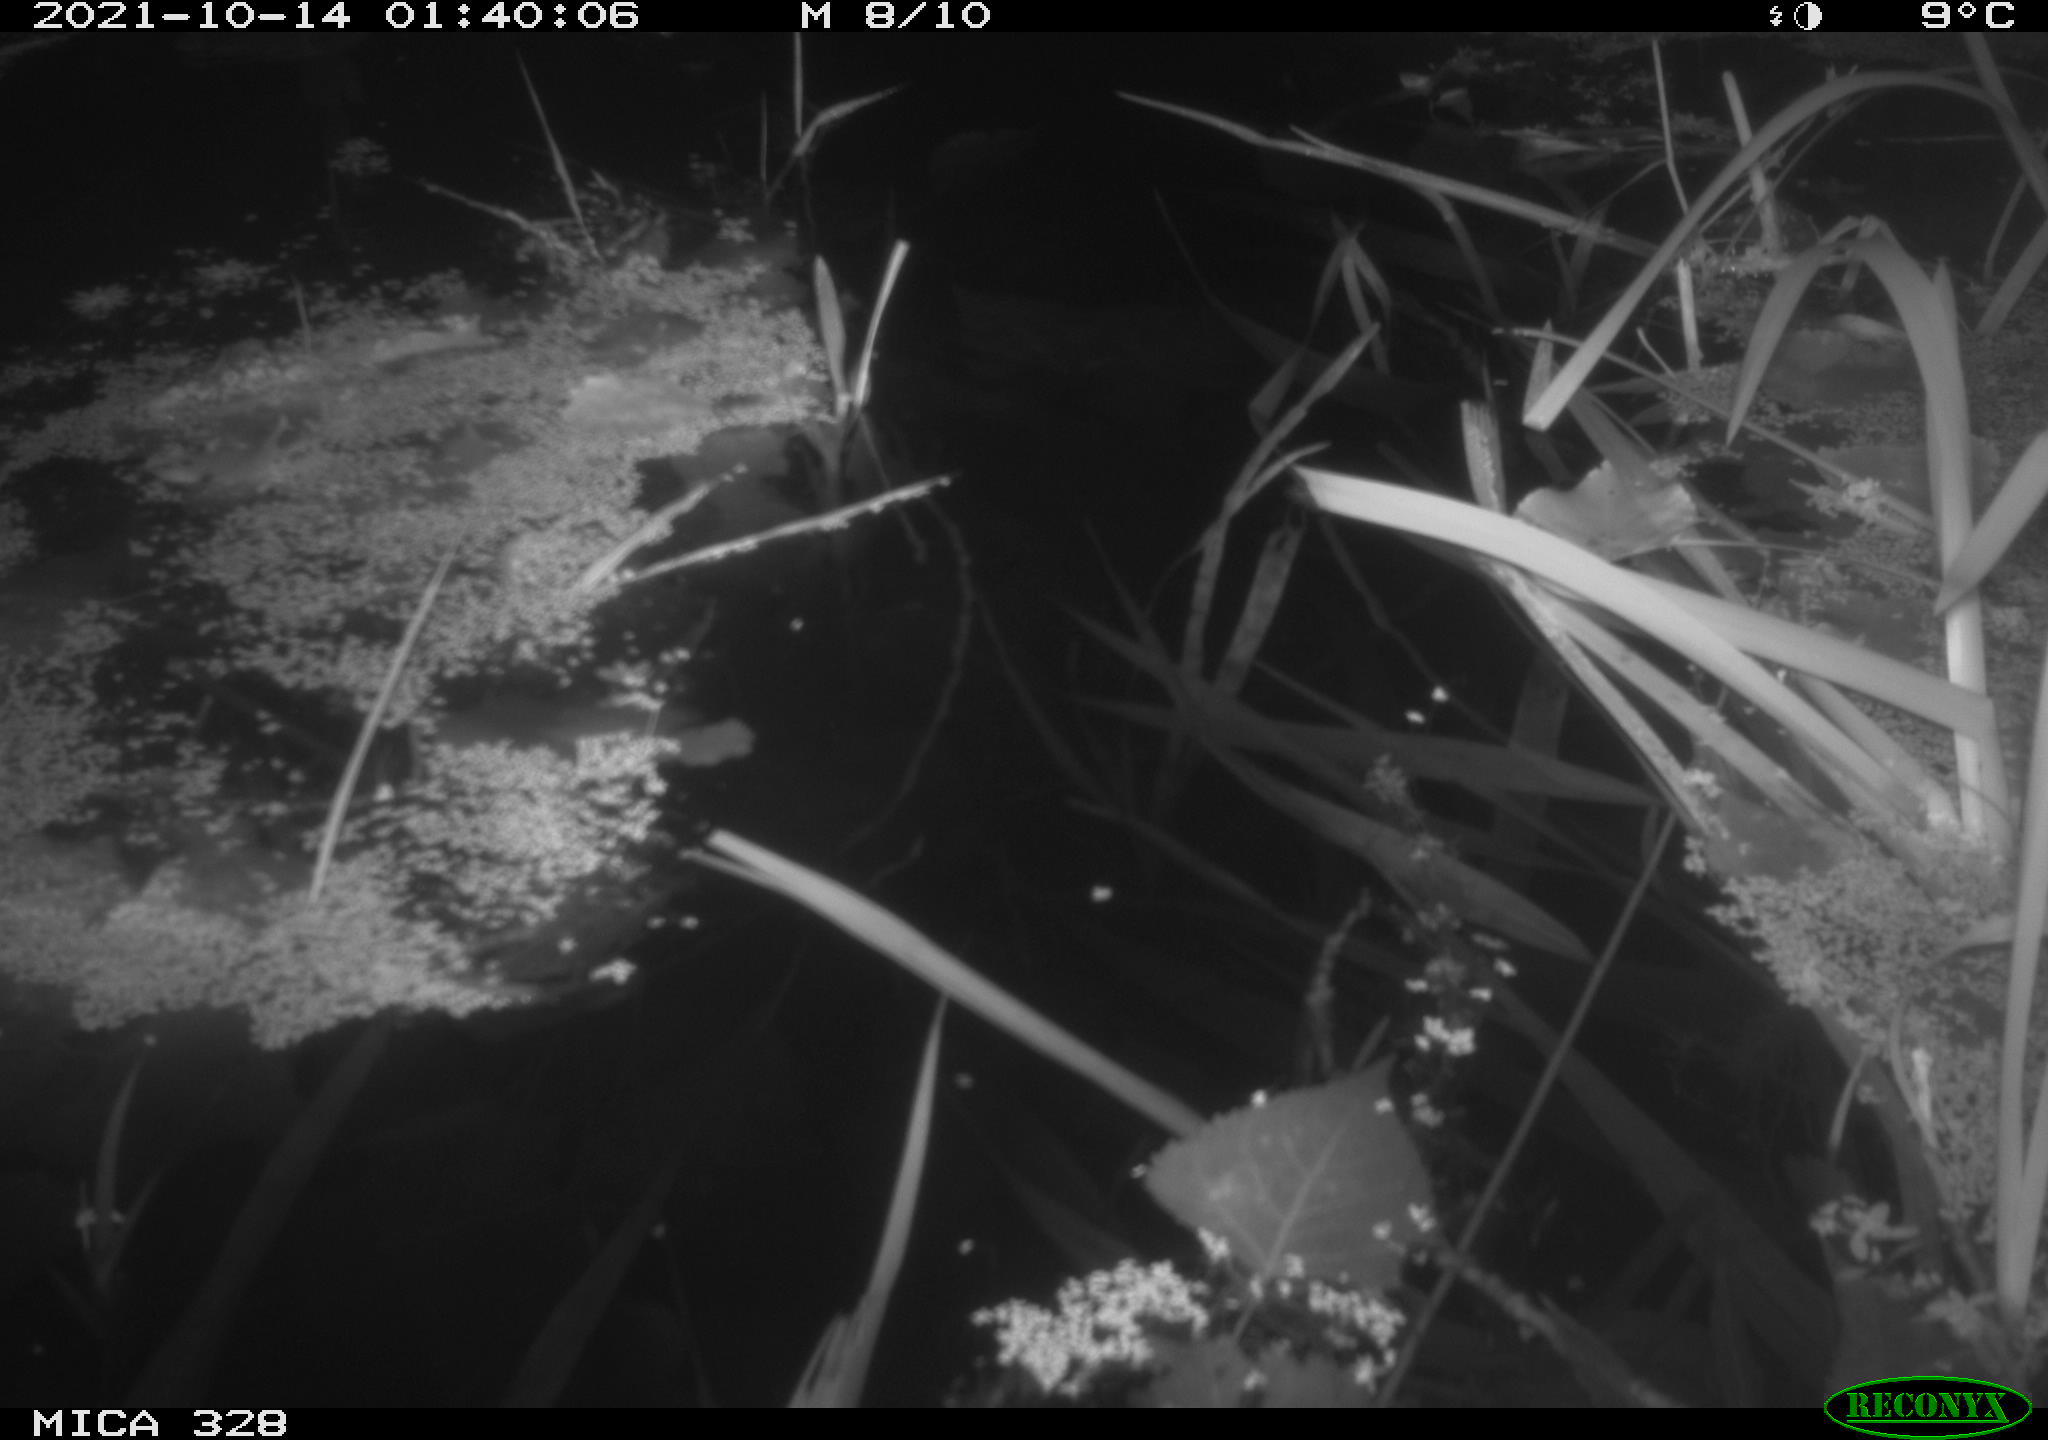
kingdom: Animalia
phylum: Chordata
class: Mammalia
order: Rodentia
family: Cricetidae
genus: Ondatra
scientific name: Ondatra zibethicus
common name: Muskrat
